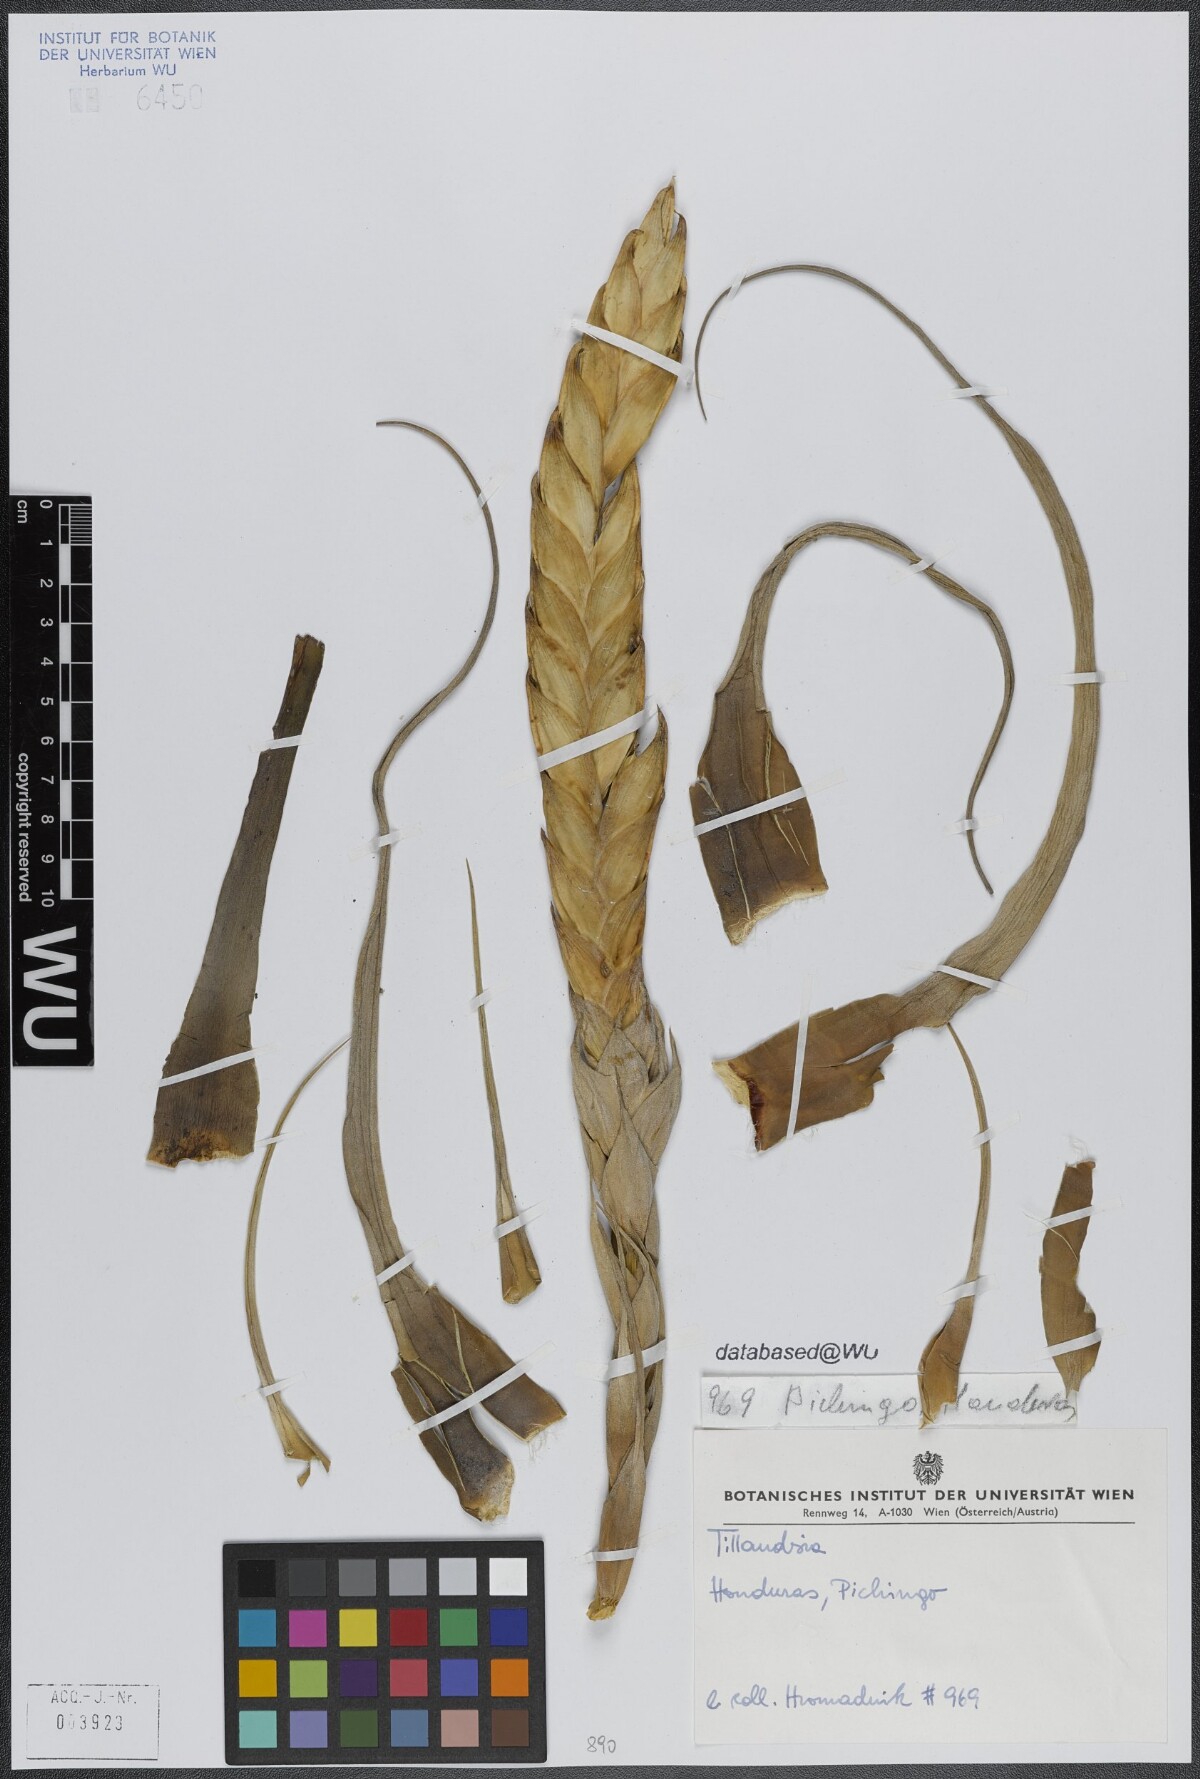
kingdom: Plantae
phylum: Tracheophyta
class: Liliopsida
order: Poales
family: Bromeliaceae
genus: Tillandsia
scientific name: Tillandsia fasciculata
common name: Giant airplant
